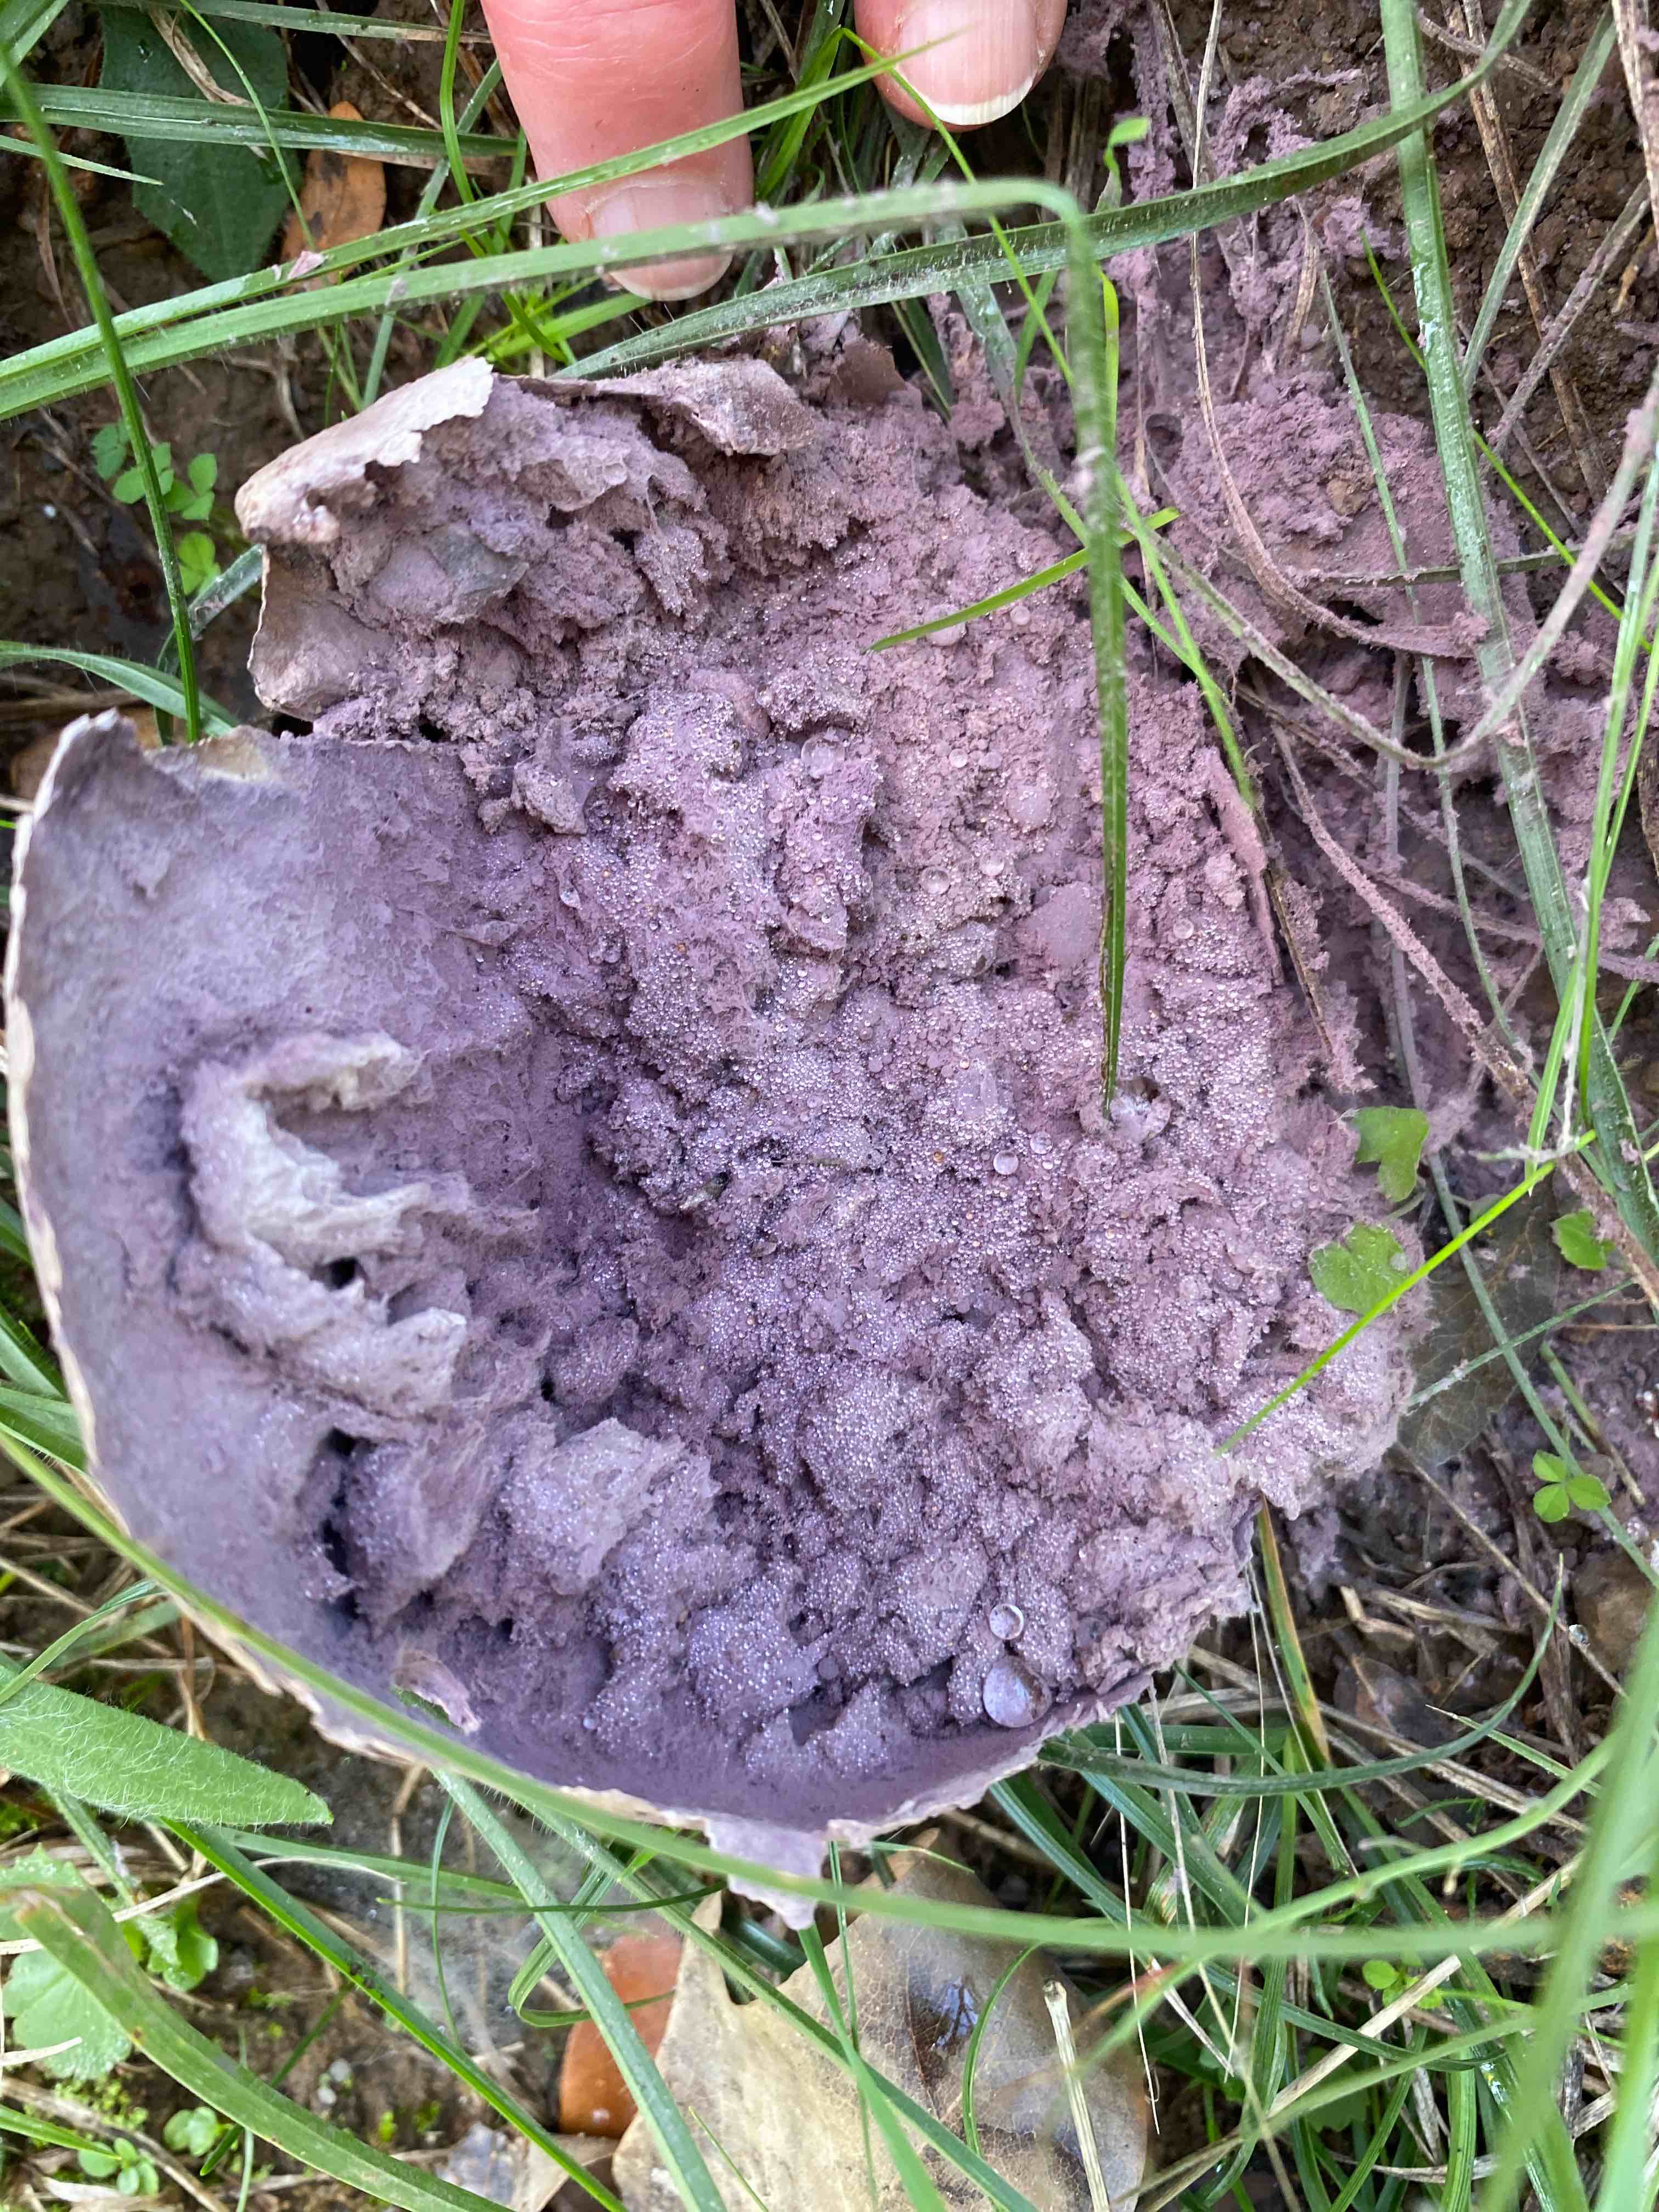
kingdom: Fungi
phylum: Basidiomycota
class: Agaricomycetes
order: Agaricales
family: Lycoperdaceae
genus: Calvatia
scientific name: Calvatia cyathiformis
